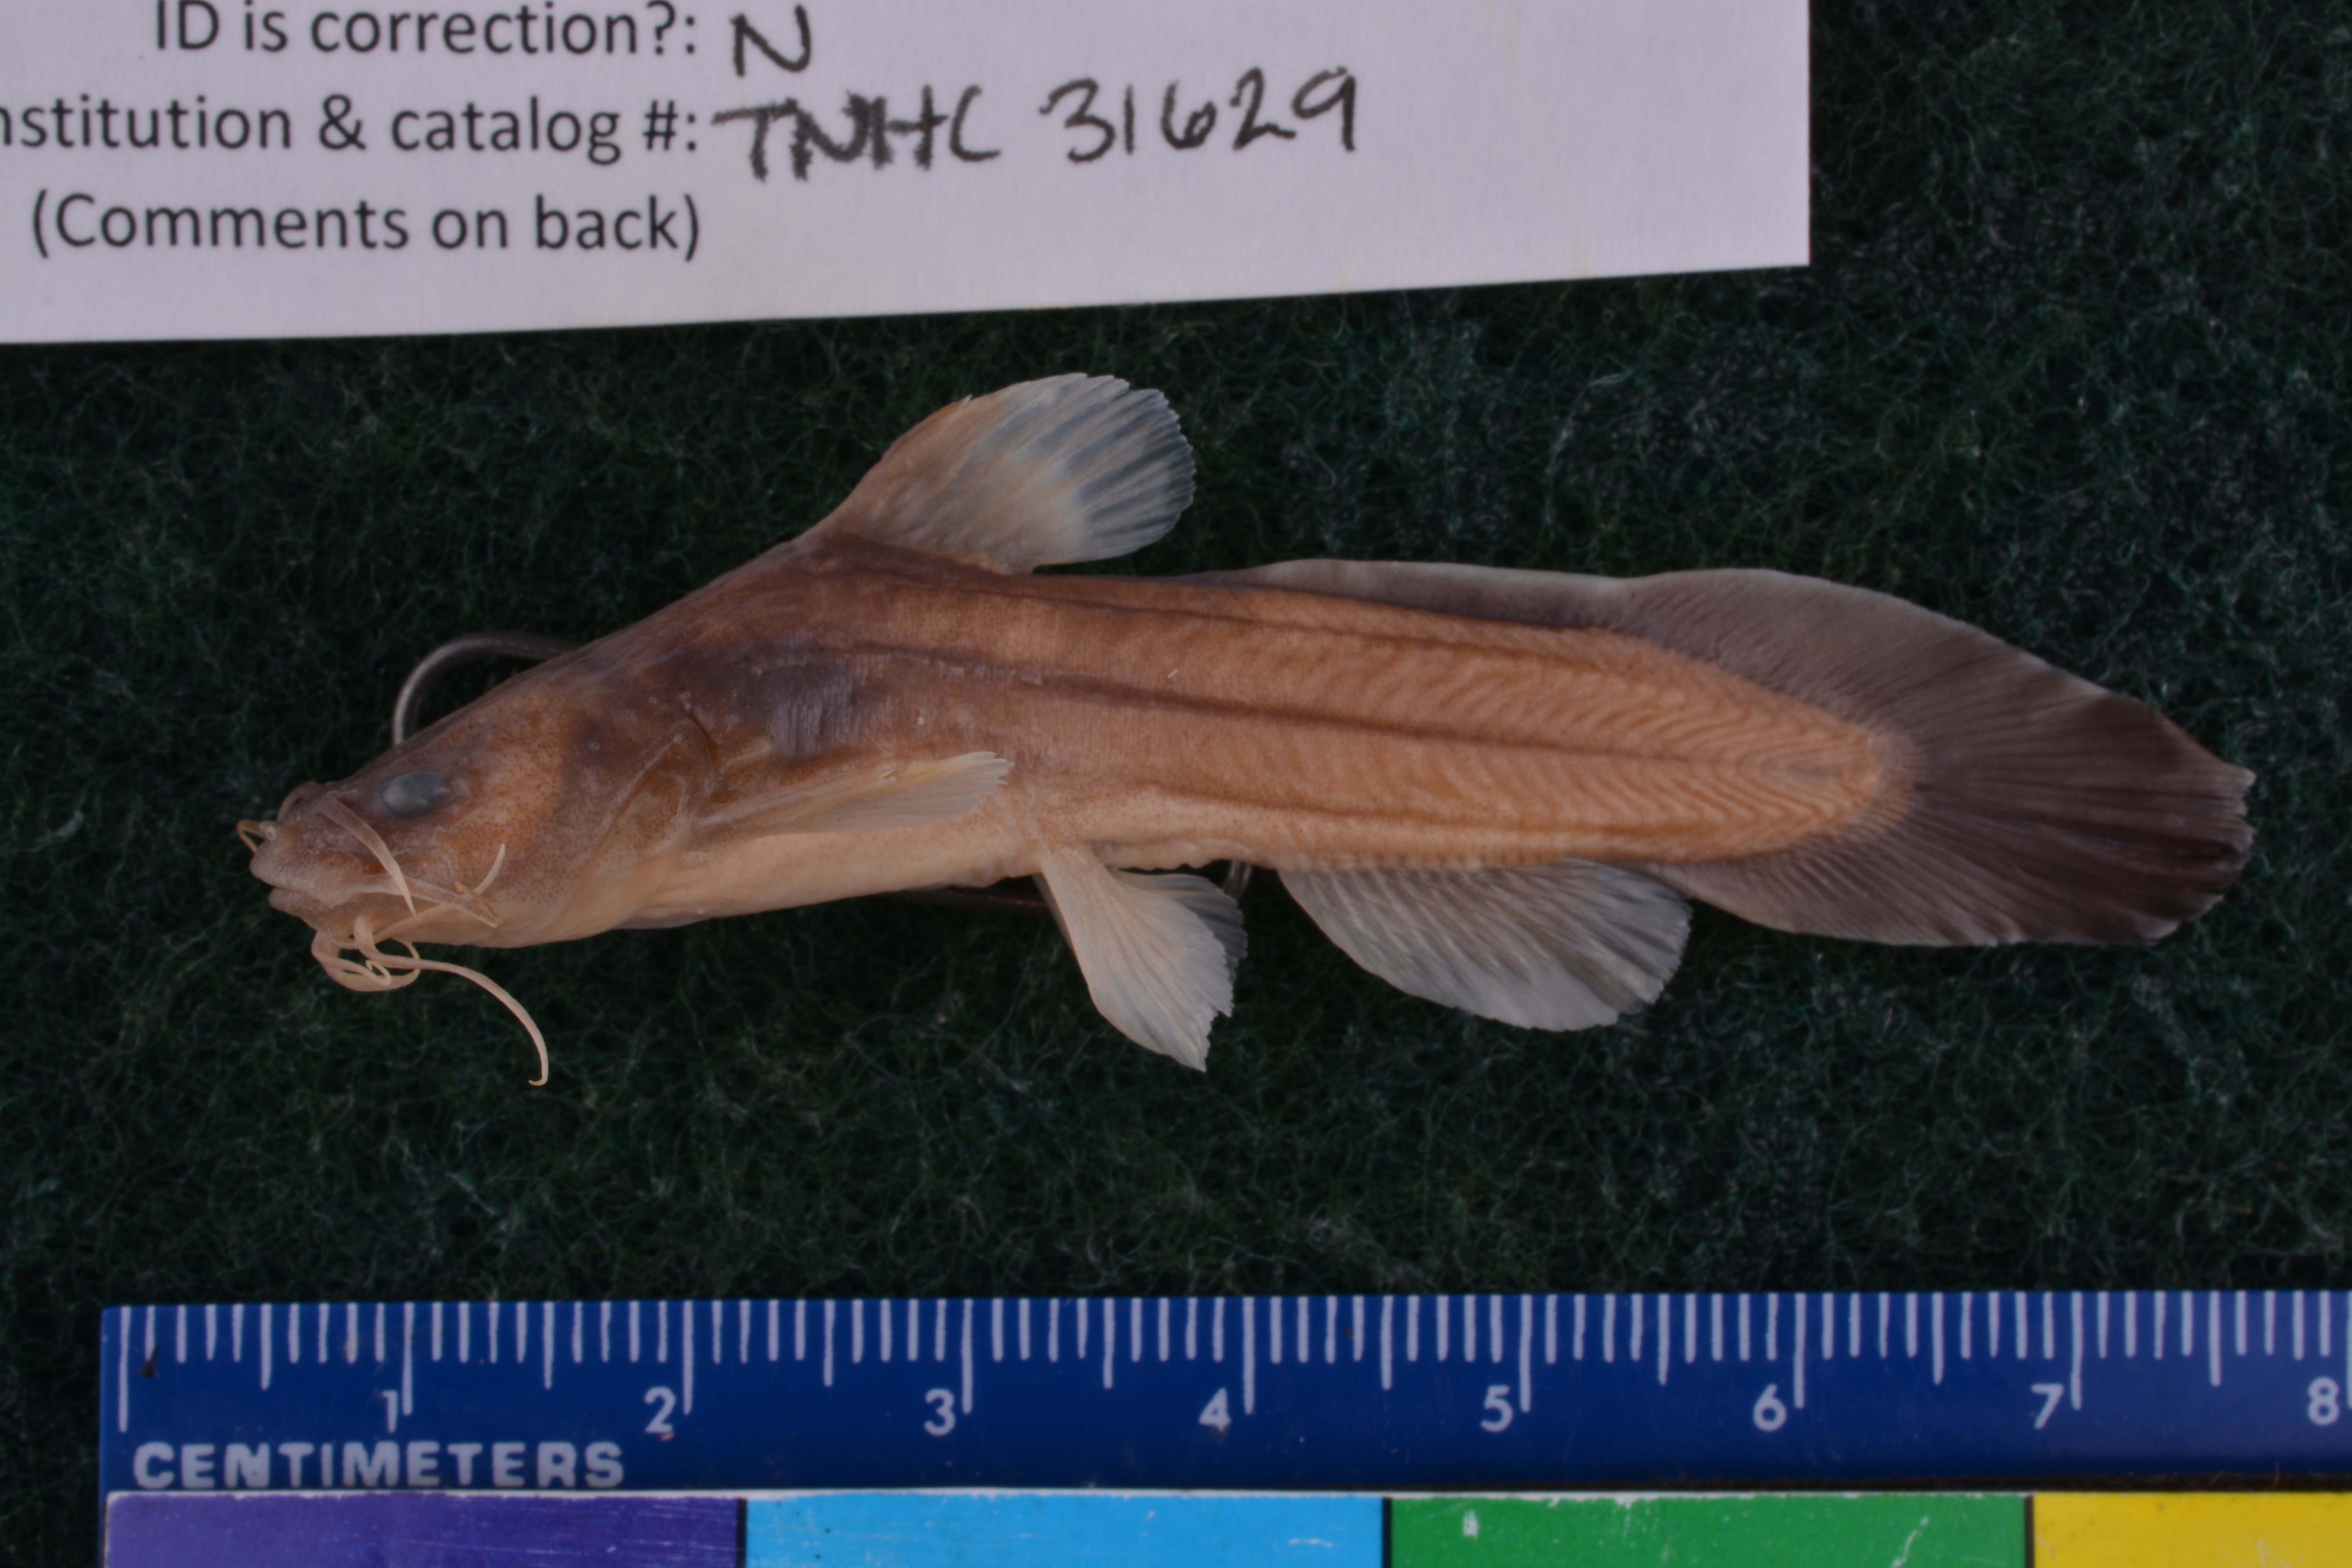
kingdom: Animalia
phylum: Chordata
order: Siluriformes
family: Ictaluridae
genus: Noturus
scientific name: Noturus gyrinus
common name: Tadpole madtom
